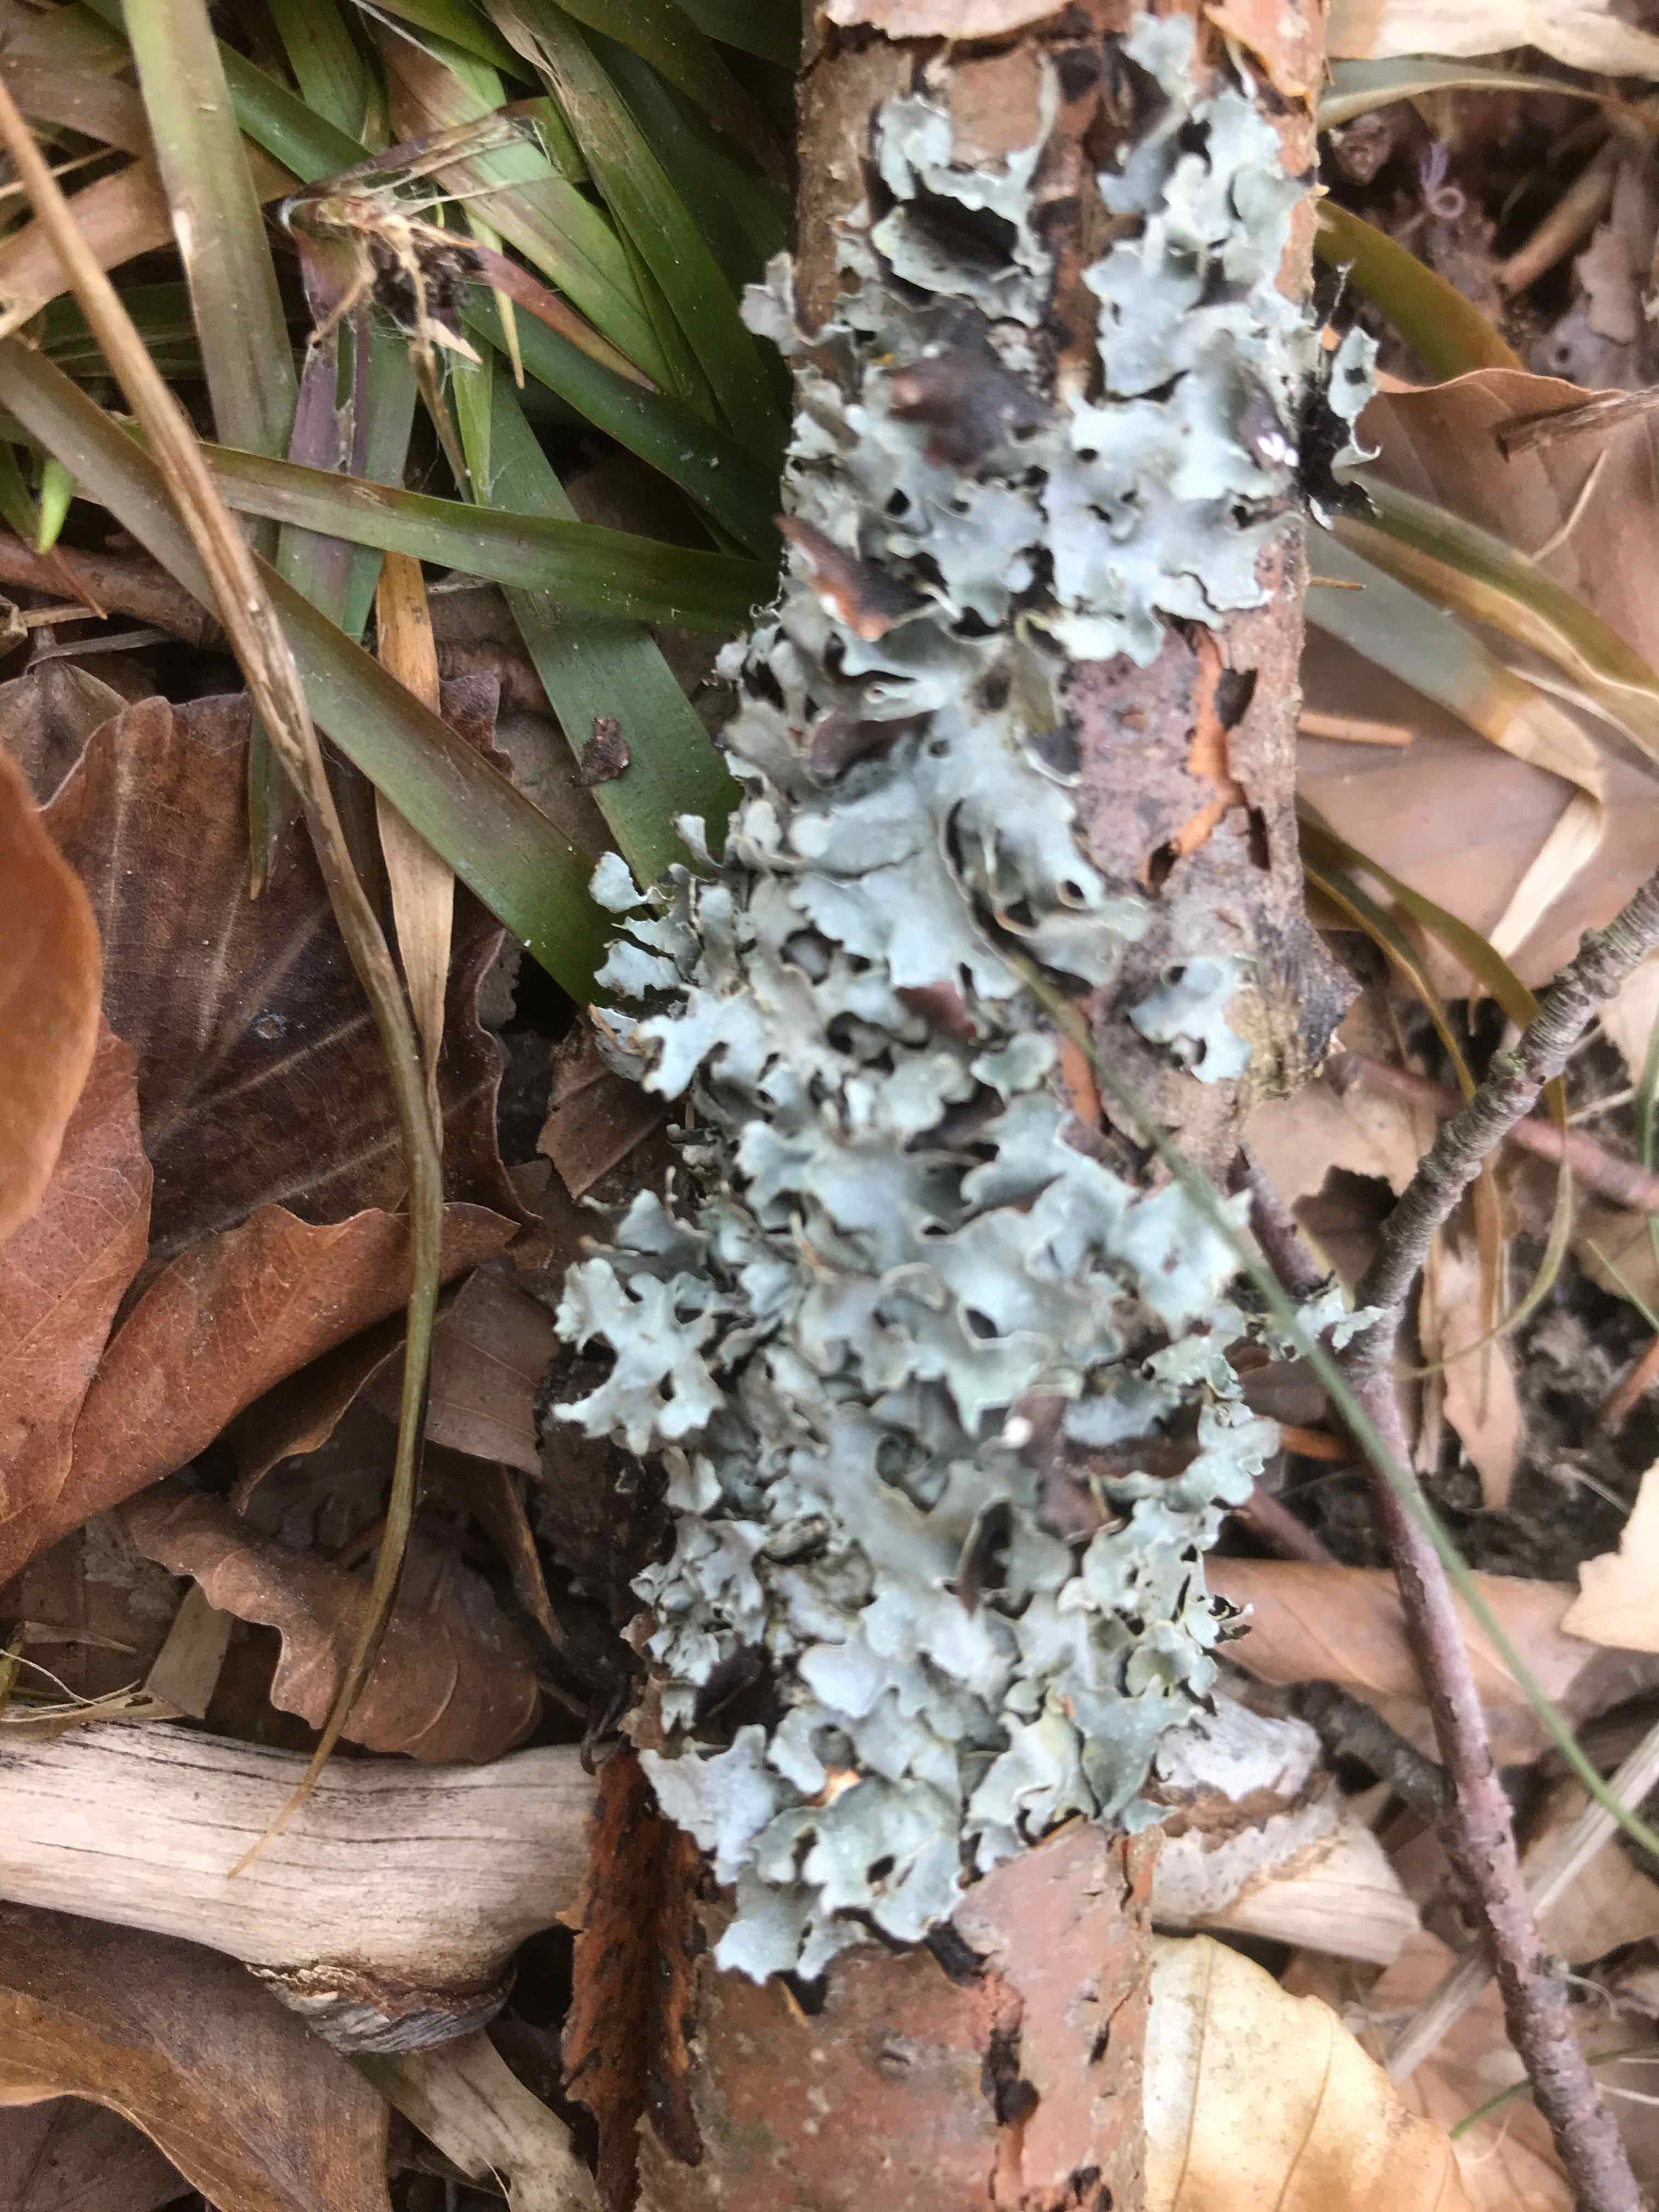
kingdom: Fungi
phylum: Ascomycota
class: Lecanoromycetes
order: Lecanorales
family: Parmeliaceae
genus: Parmelia
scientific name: Parmelia sulcata
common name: rynket skållav
